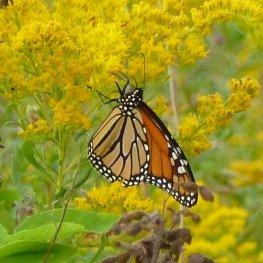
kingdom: Animalia
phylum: Arthropoda
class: Insecta
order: Lepidoptera
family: Nymphalidae
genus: Danaus
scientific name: Danaus plexippus
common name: Monarch
